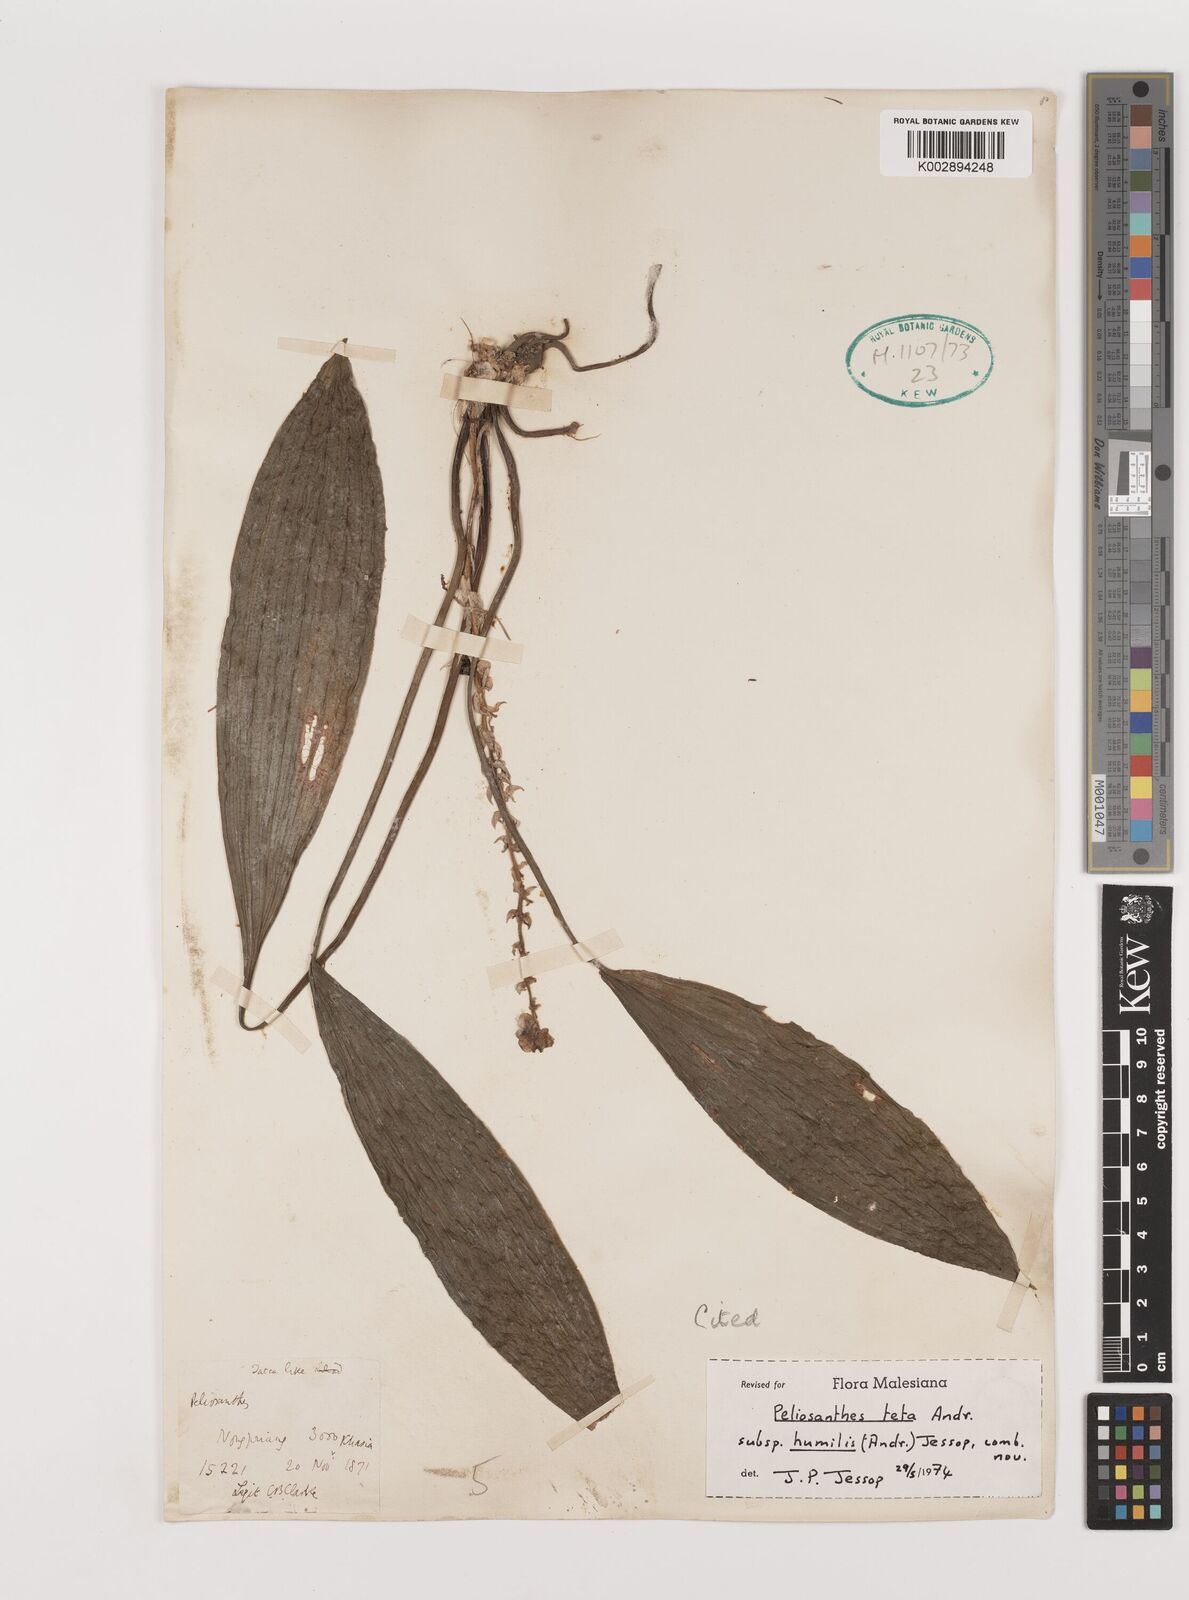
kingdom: Plantae
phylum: Tracheophyta
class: Liliopsida
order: Asparagales
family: Asparagaceae
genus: Peliosanthes
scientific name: Peliosanthes teta
